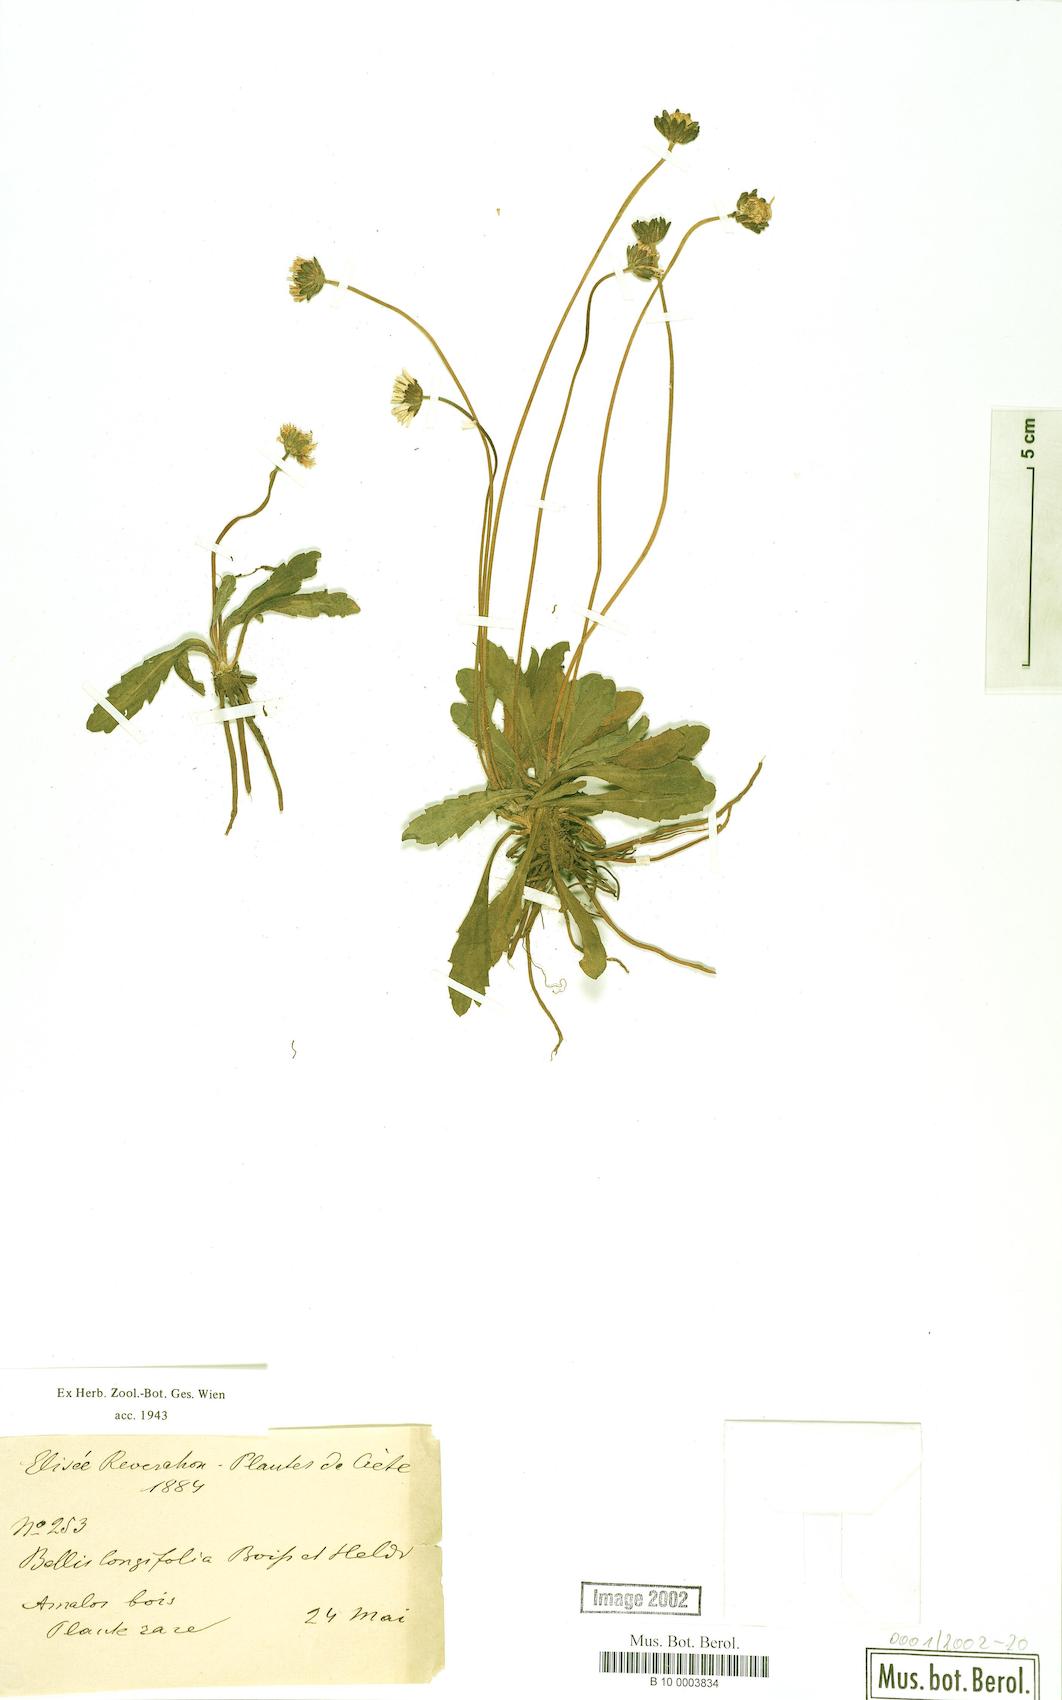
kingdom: Plantae
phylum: Tracheophyta
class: Magnoliopsida
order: Asterales
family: Asteraceae
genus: Bellis
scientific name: Bellis longifolia
